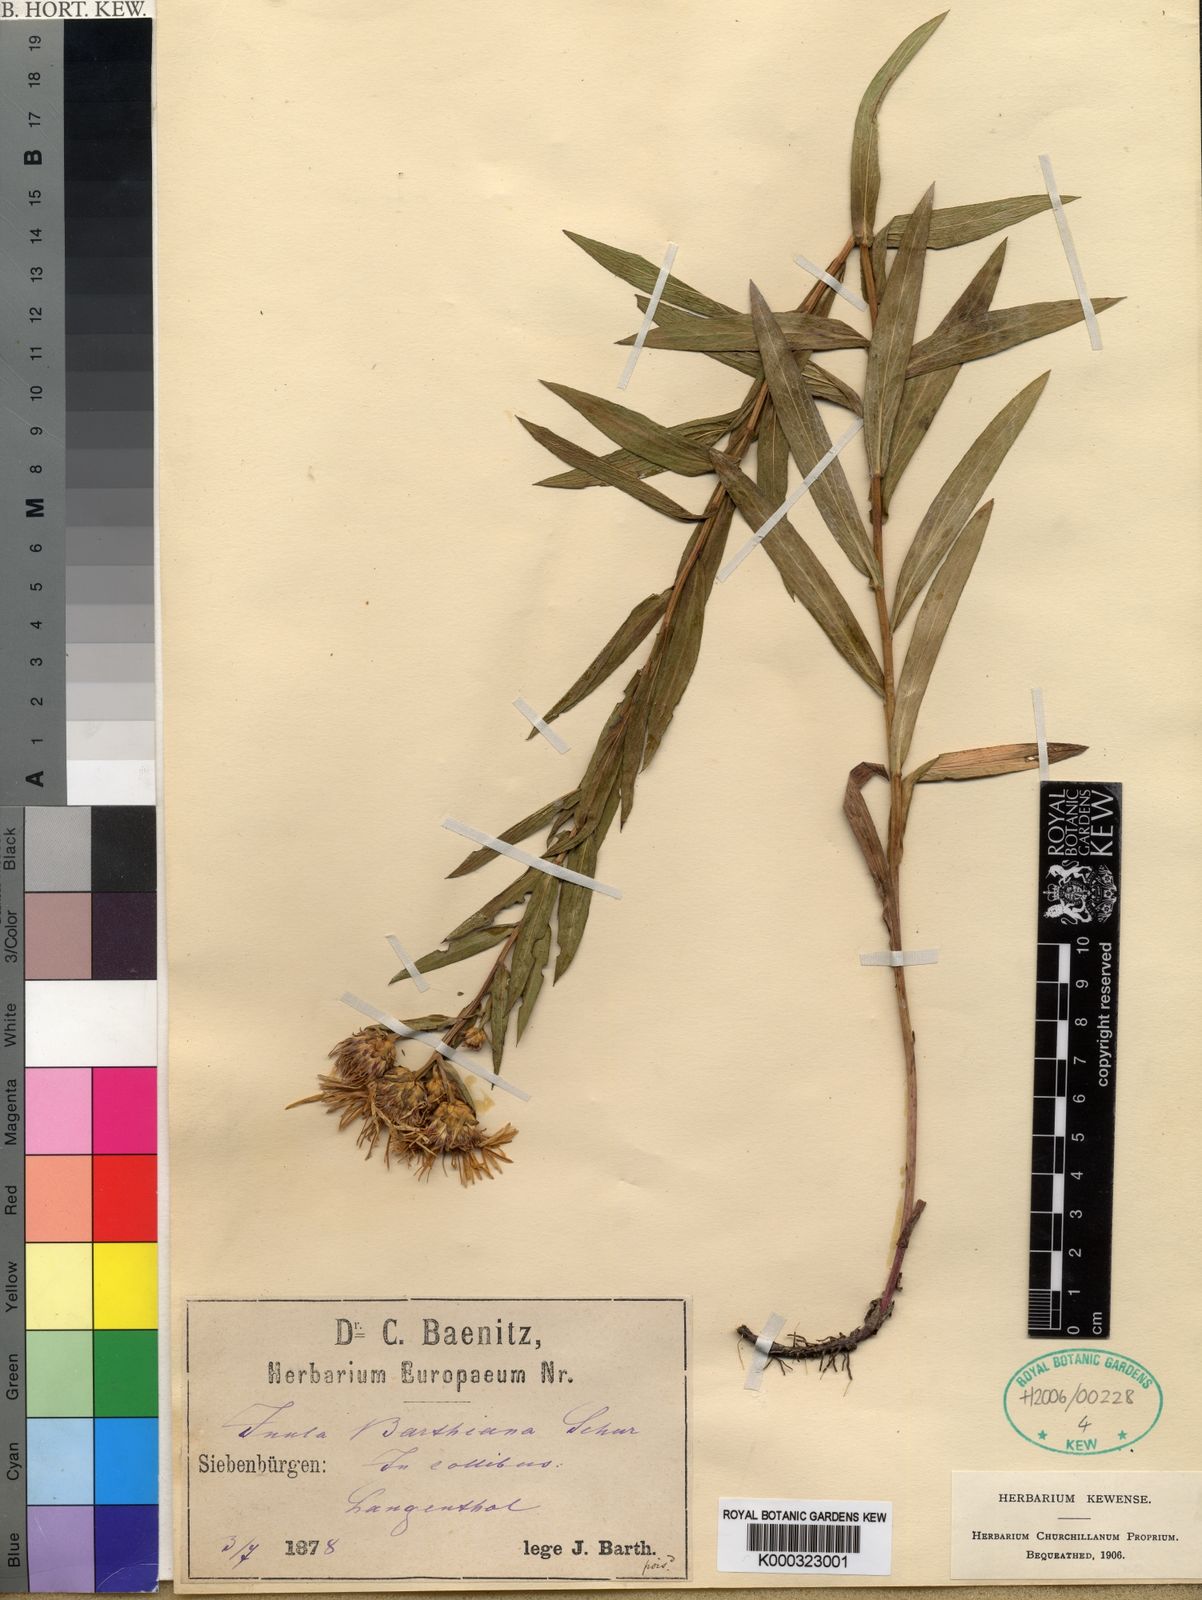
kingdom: Plantae
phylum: Tracheophyta
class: Magnoliopsida
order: Asterales
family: Asteraceae
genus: Pentanema
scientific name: Pentanema strictum
